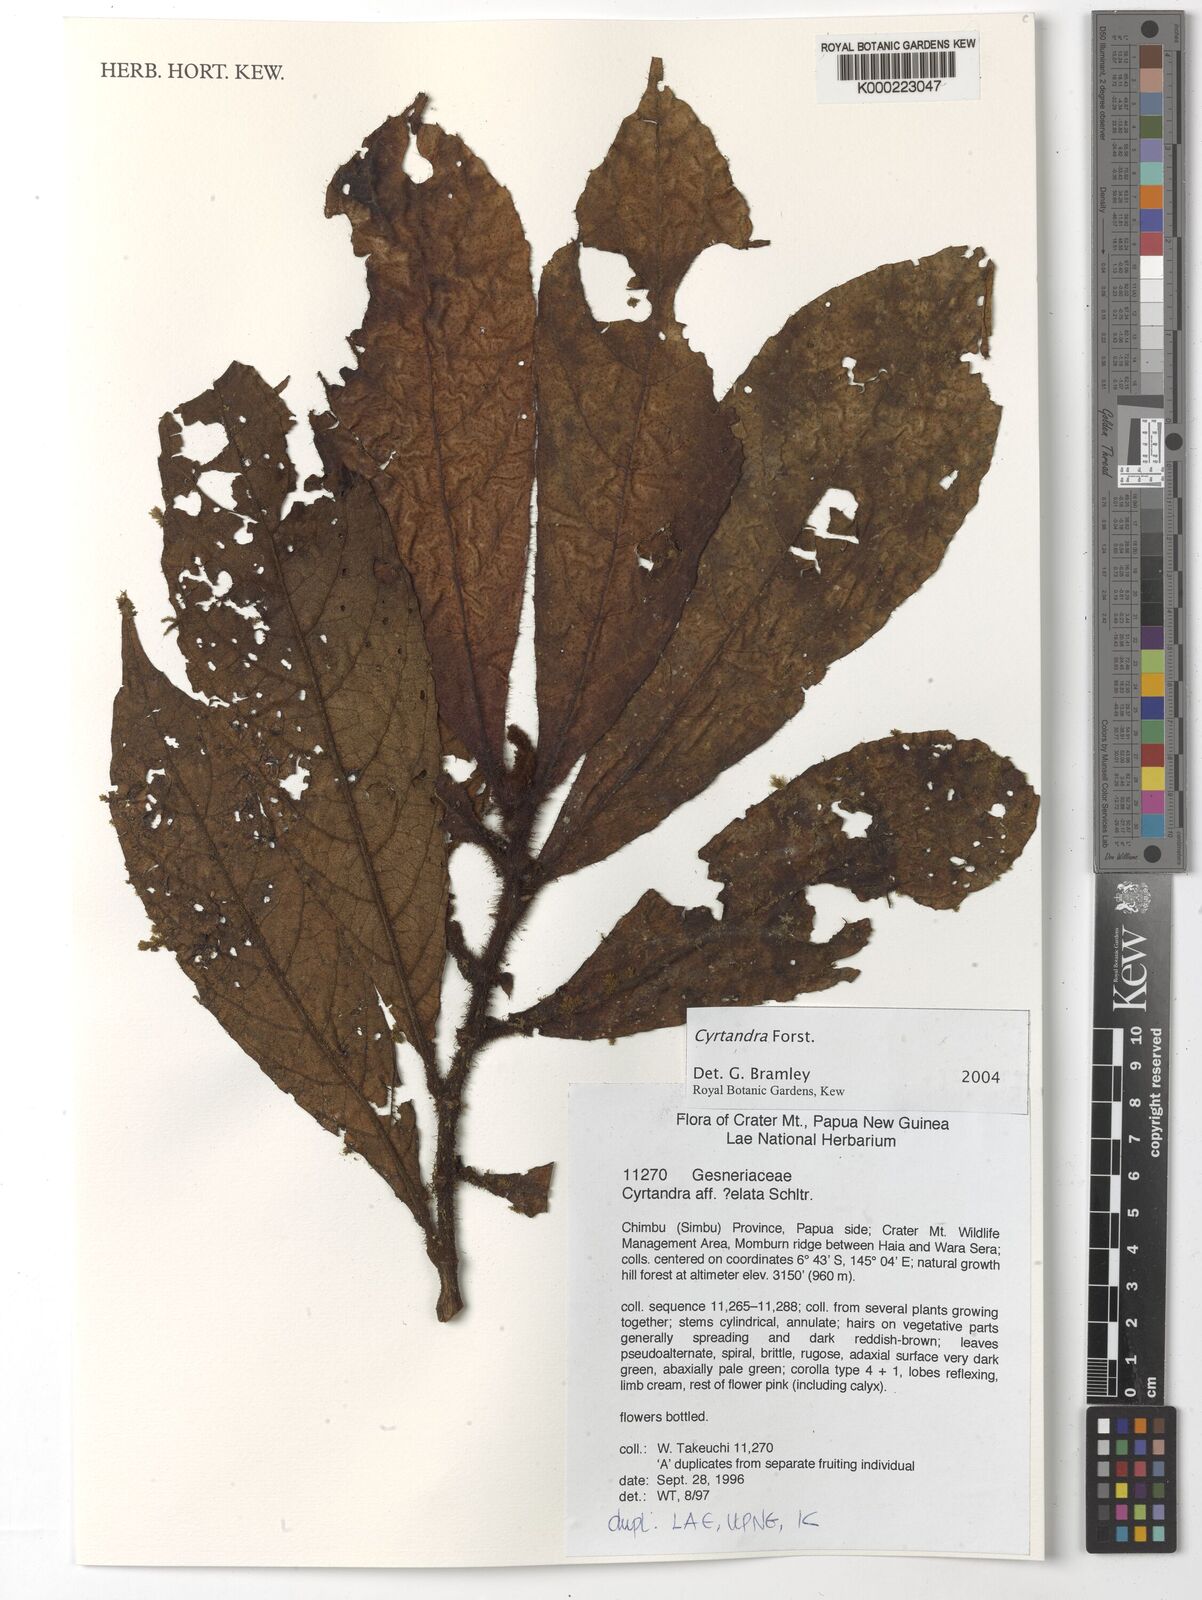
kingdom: Plantae
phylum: Tracheophyta
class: Magnoliopsida
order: Lamiales
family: Gesneriaceae
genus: Cyrtandra
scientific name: Cyrtandra
